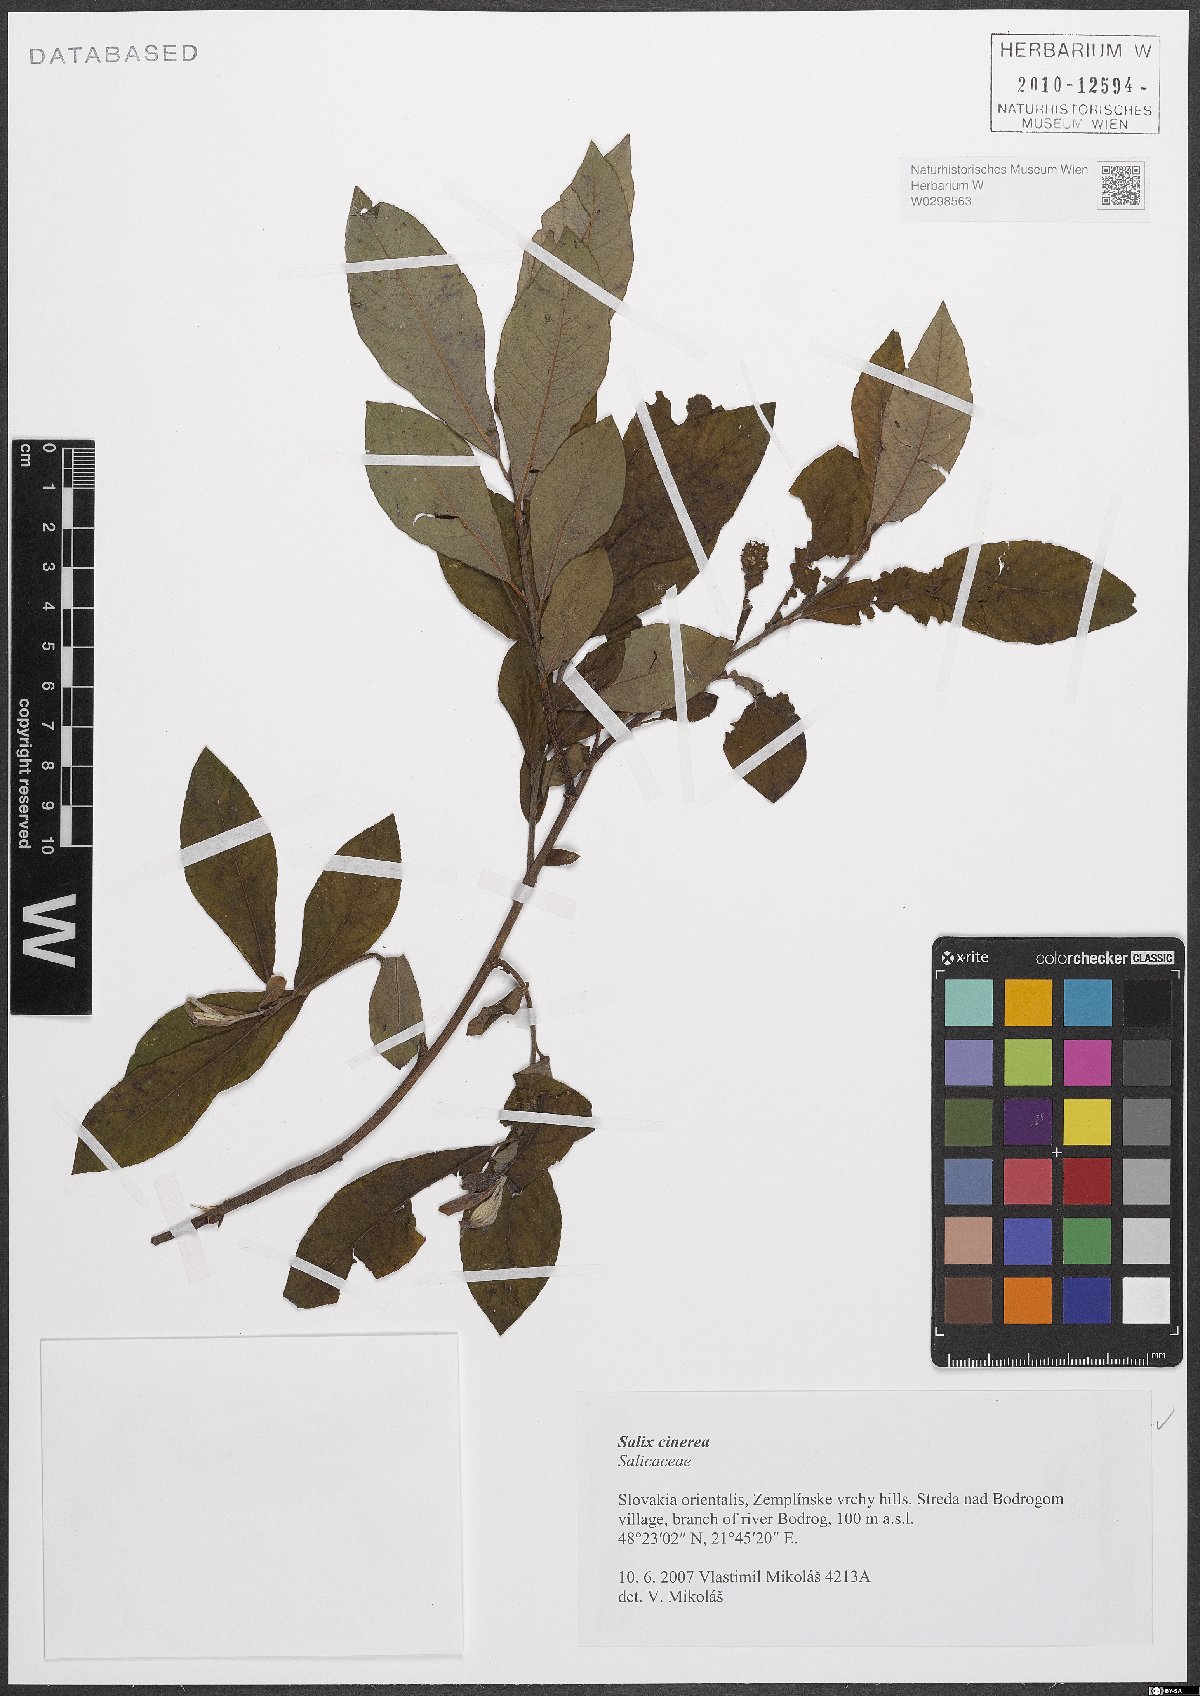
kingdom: Plantae
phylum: Tracheophyta
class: Magnoliopsida
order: Malpighiales
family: Salicaceae
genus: Salix
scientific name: Salix cinerea
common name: Common sallow
